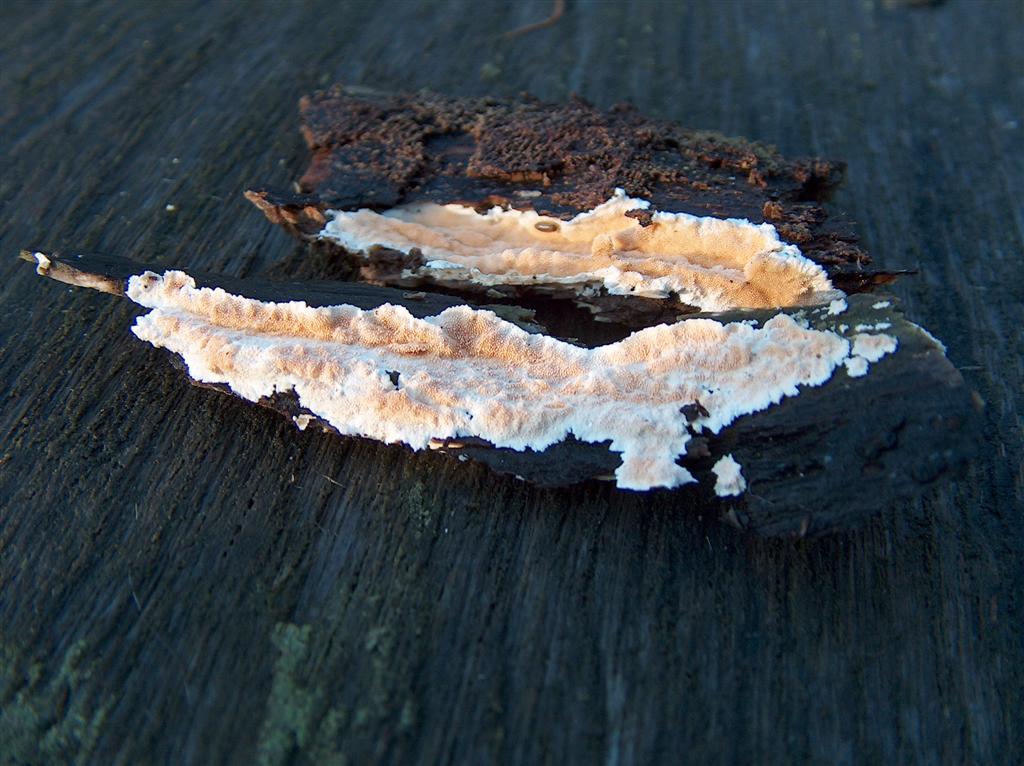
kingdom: Fungi
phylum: Basidiomycota
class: Agaricomycetes
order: Polyporales
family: Steccherinaceae
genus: Steccherinum
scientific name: Steccherinum ochraceum
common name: almindelig skønpig
